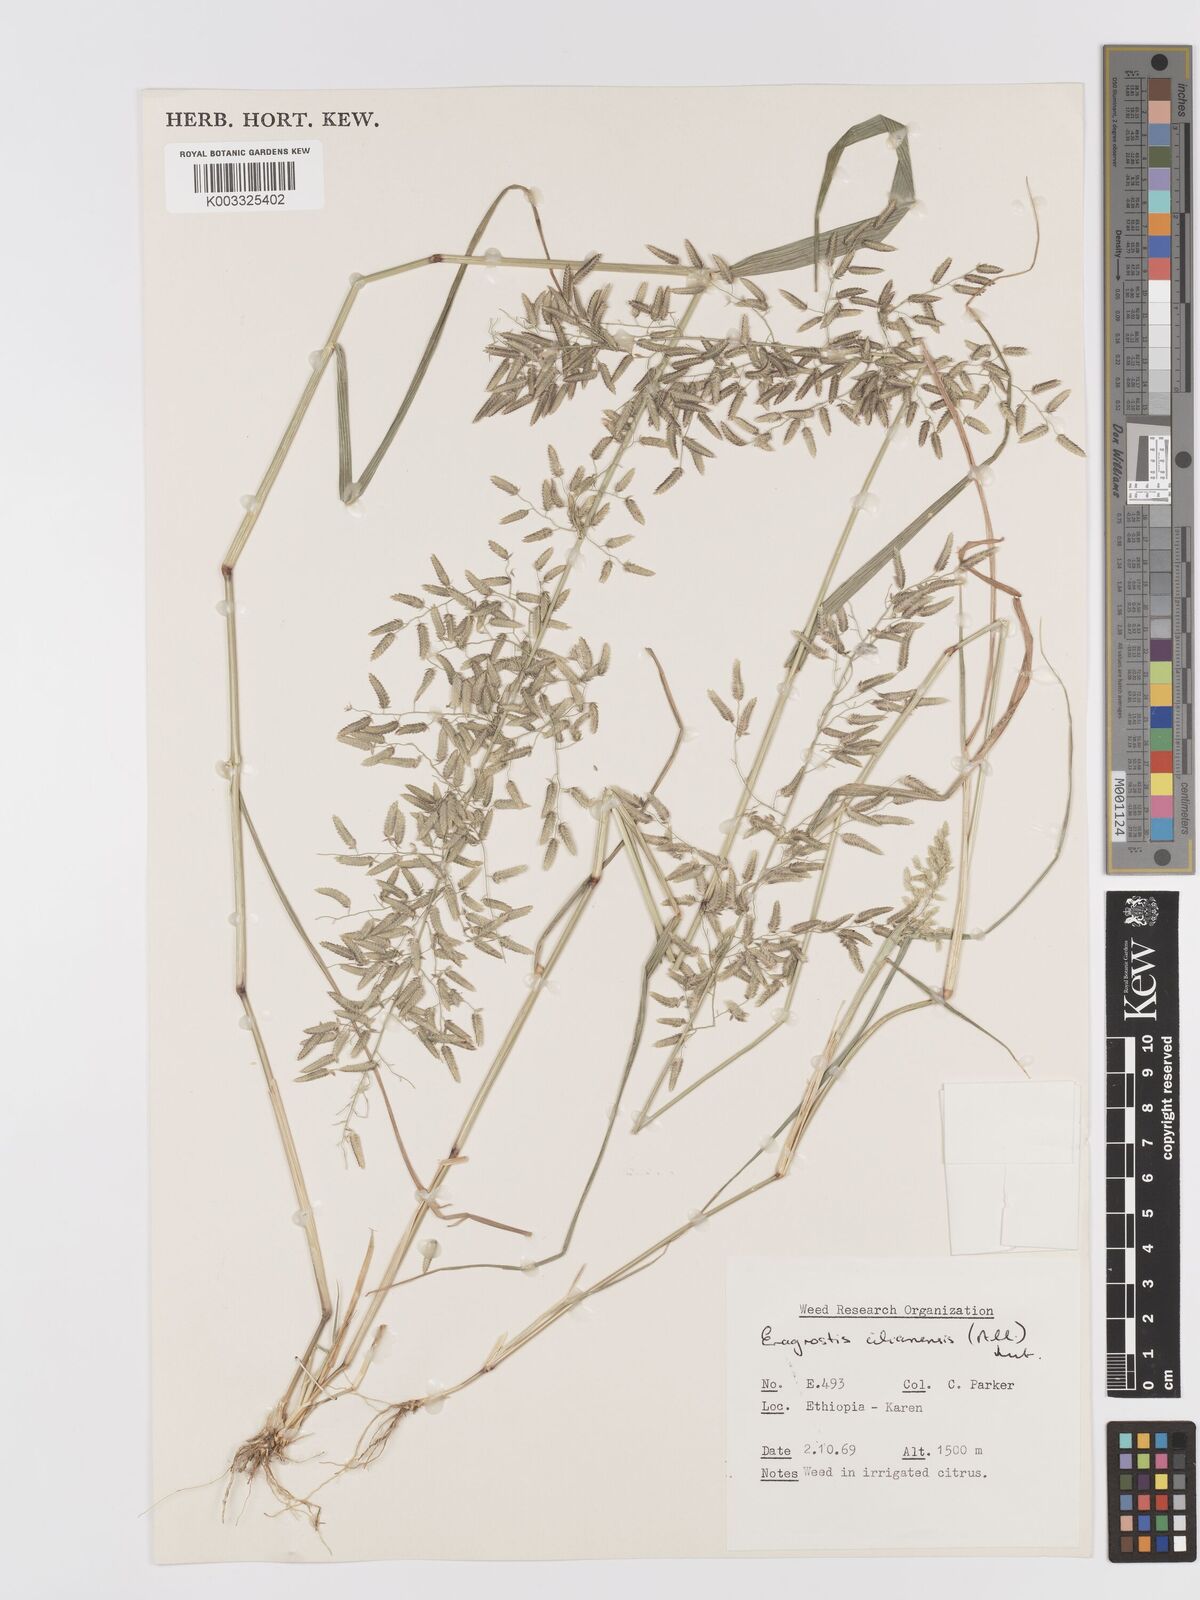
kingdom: Plantae
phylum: Tracheophyta
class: Liliopsida
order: Poales
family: Poaceae
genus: Eragrostis
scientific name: Eragrostis cilianensis
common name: Stinkgrass
